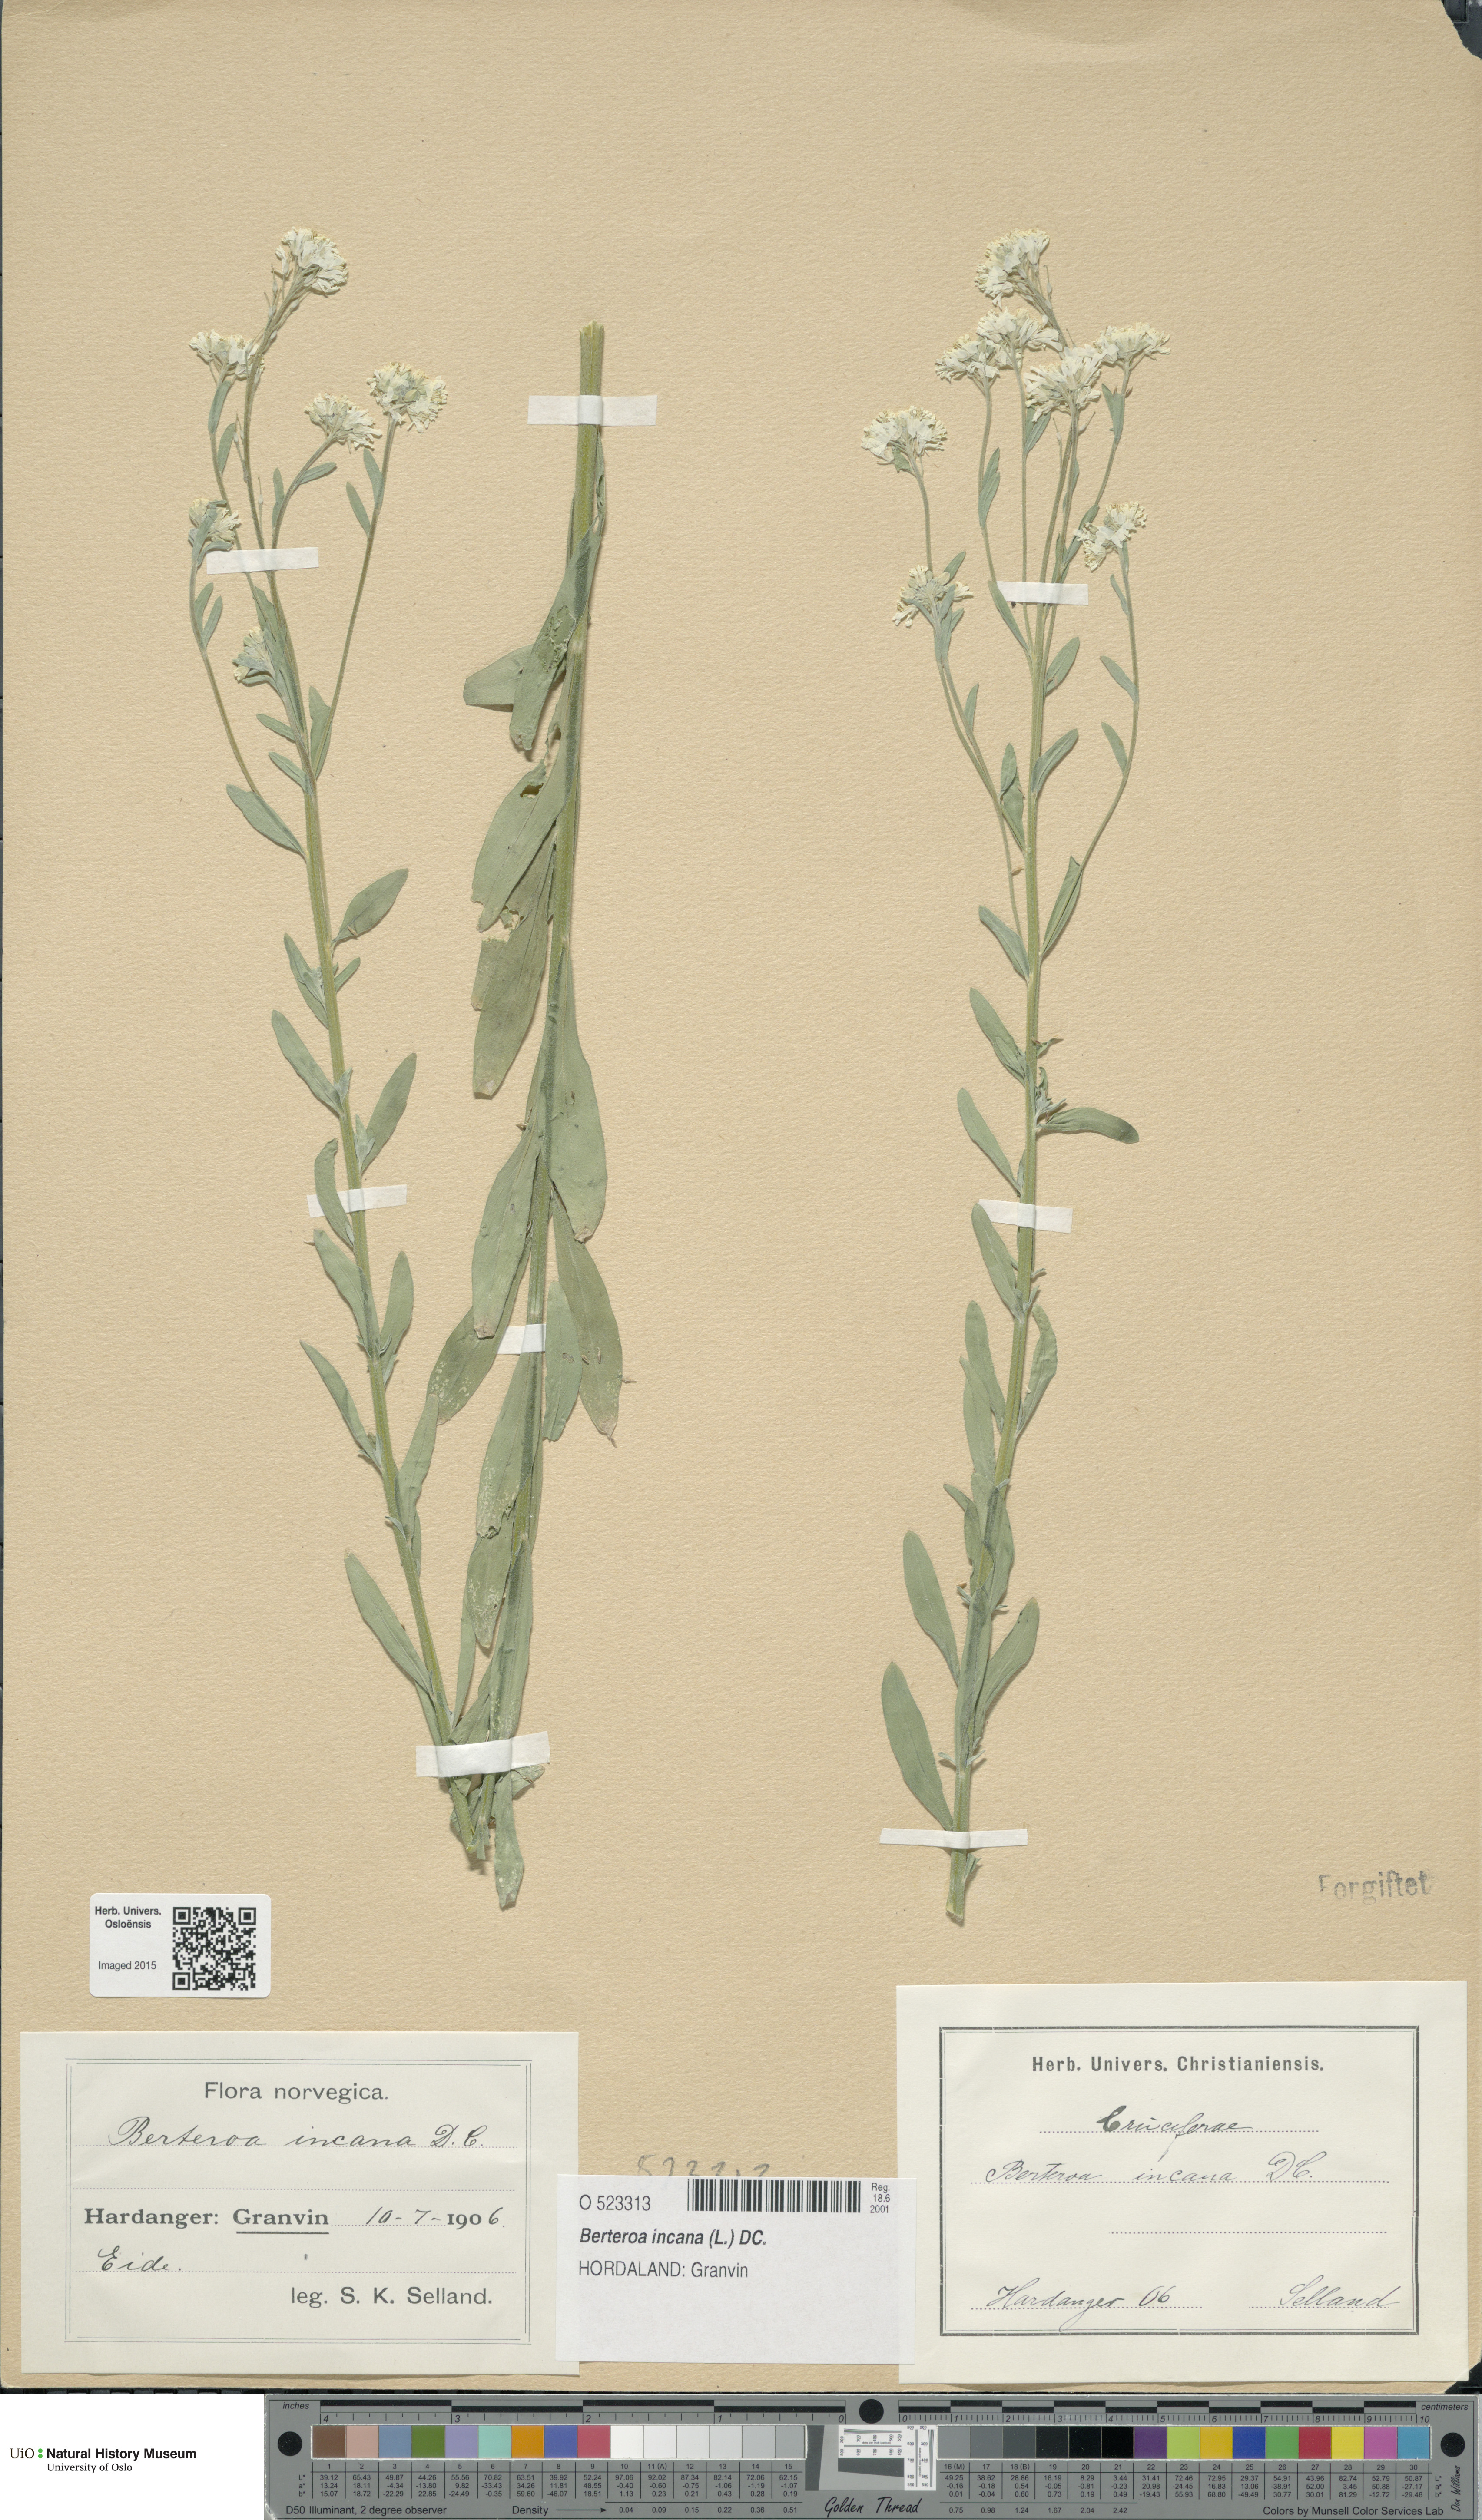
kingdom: Plantae
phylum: Tracheophyta
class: Magnoliopsida
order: Brassicales
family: Brassicaceae
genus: Berteroa
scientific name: Berteroa incana
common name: Hoary alison
